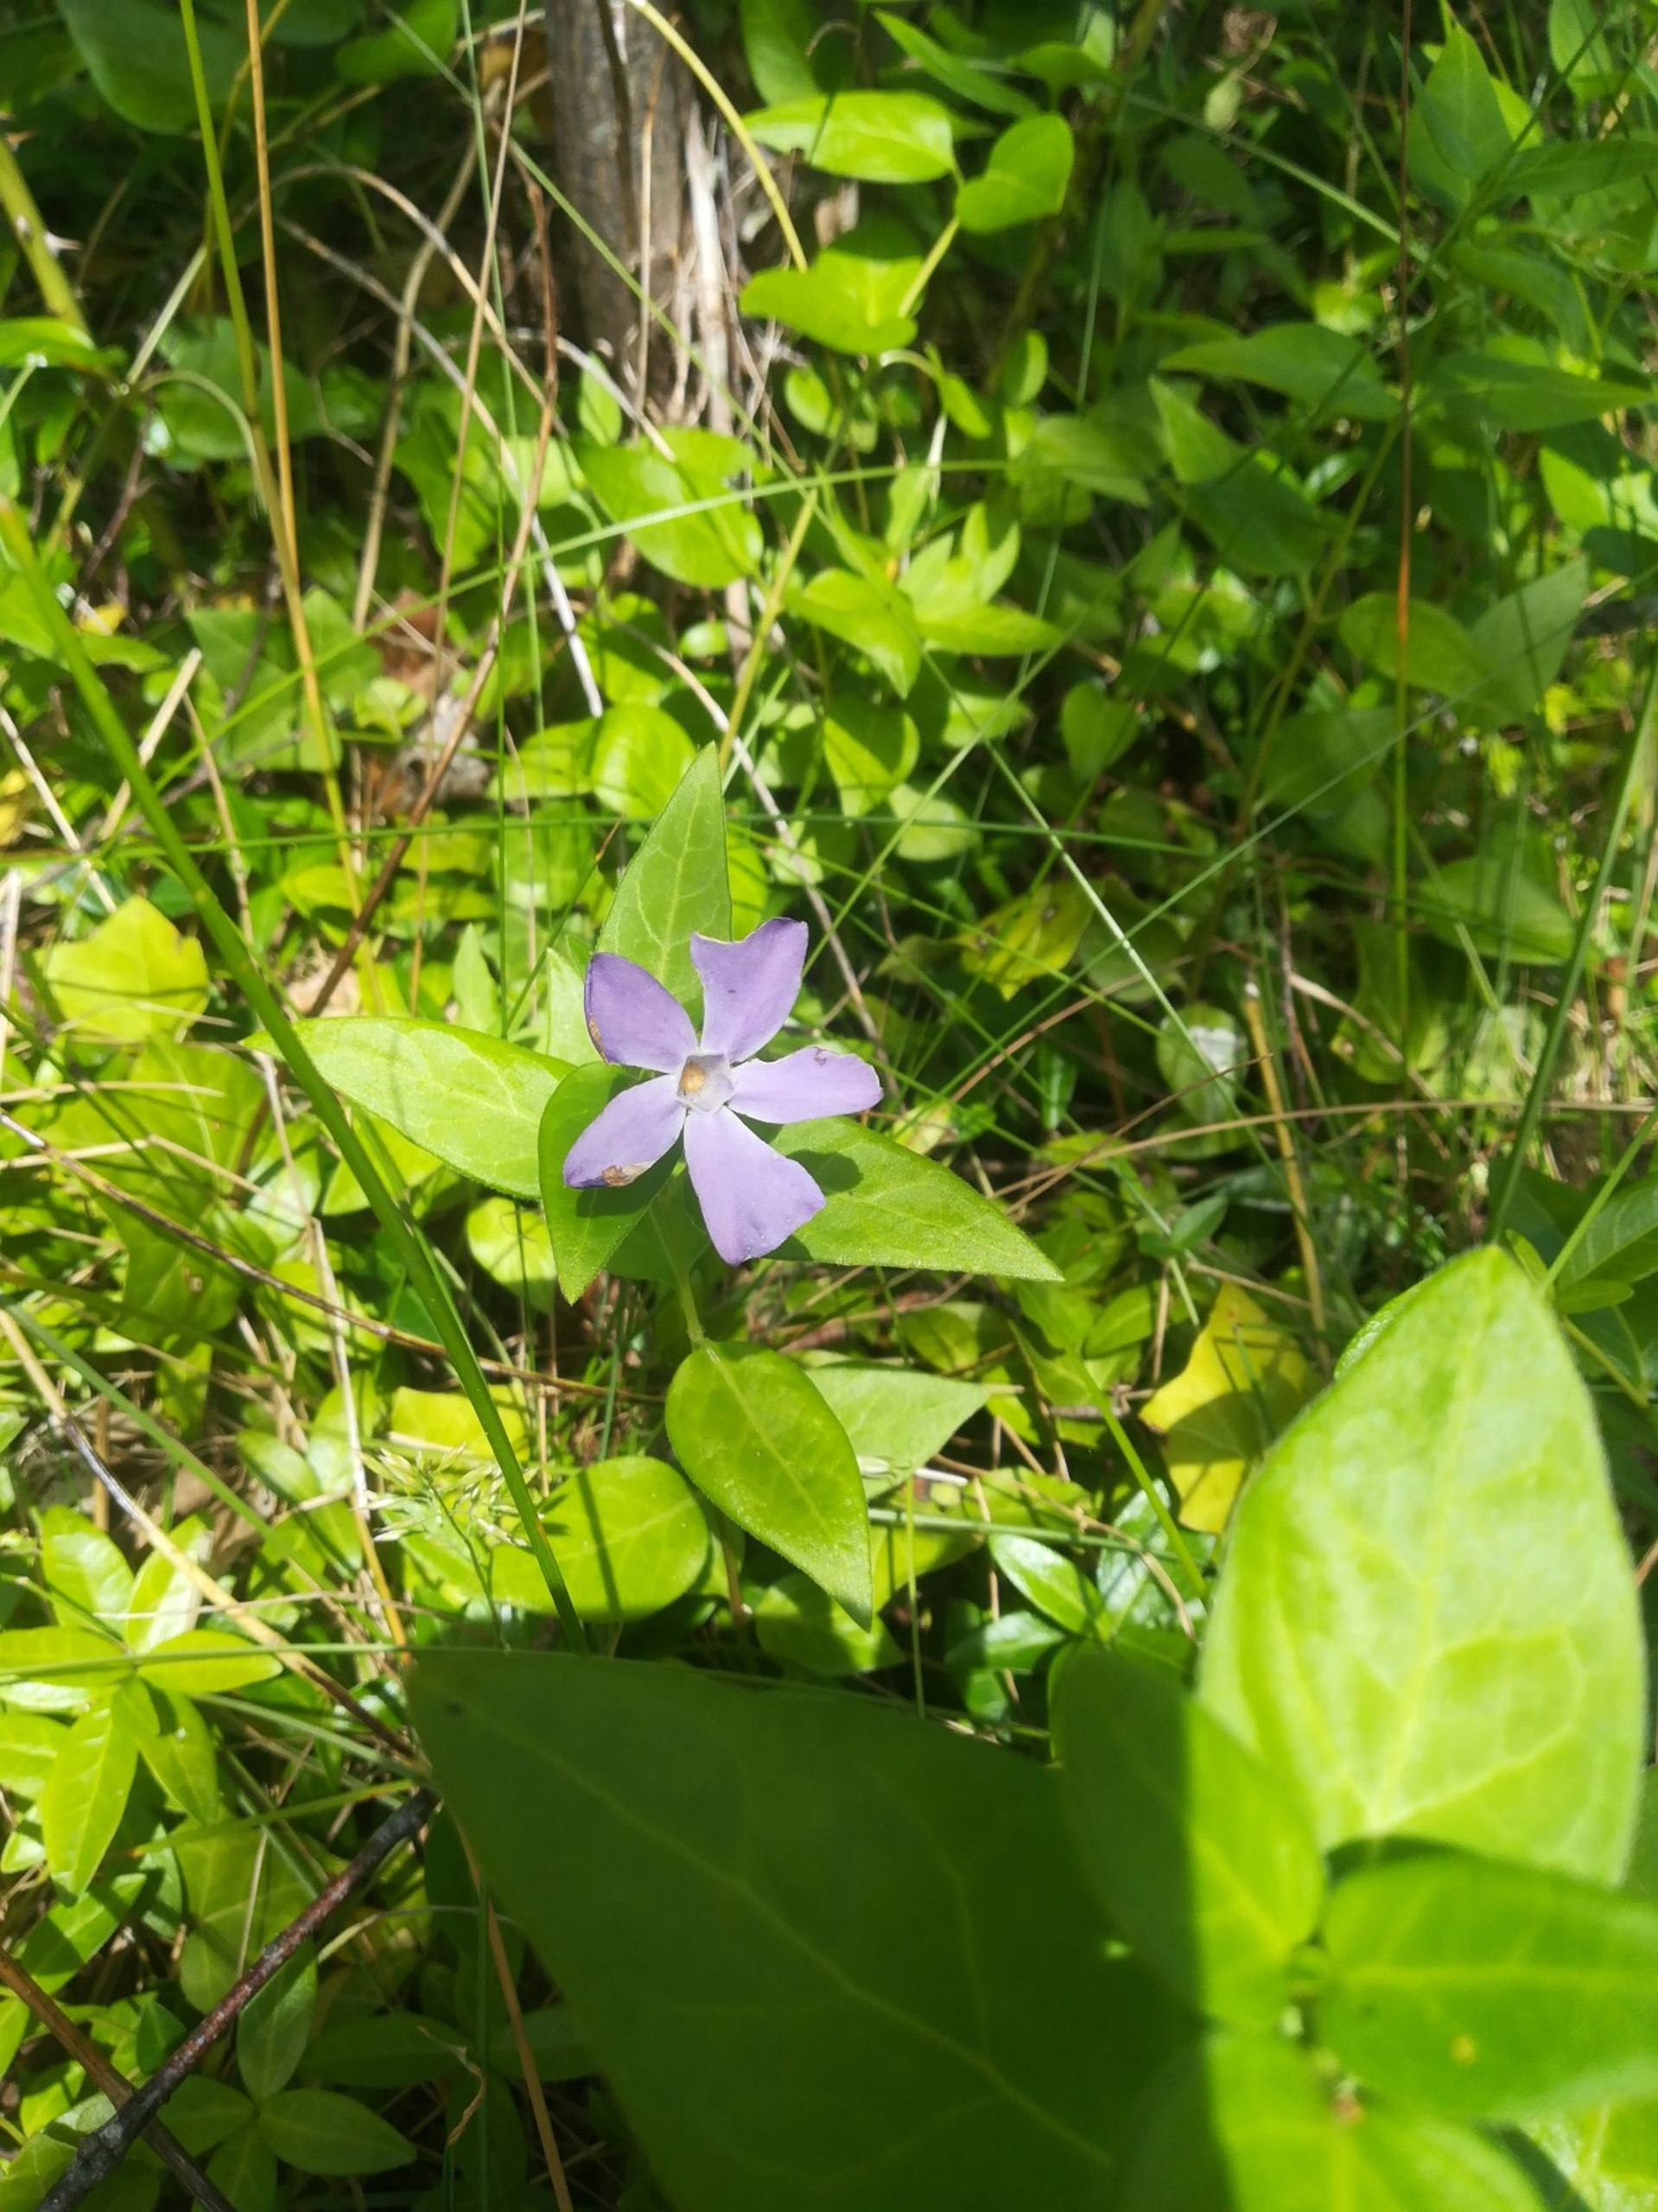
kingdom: Plantae
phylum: Tracheophyta
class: Magnoliopsida
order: Gentianales
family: Apocynaceae
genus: Vinca
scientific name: Vinca major
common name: Stor singrøn
